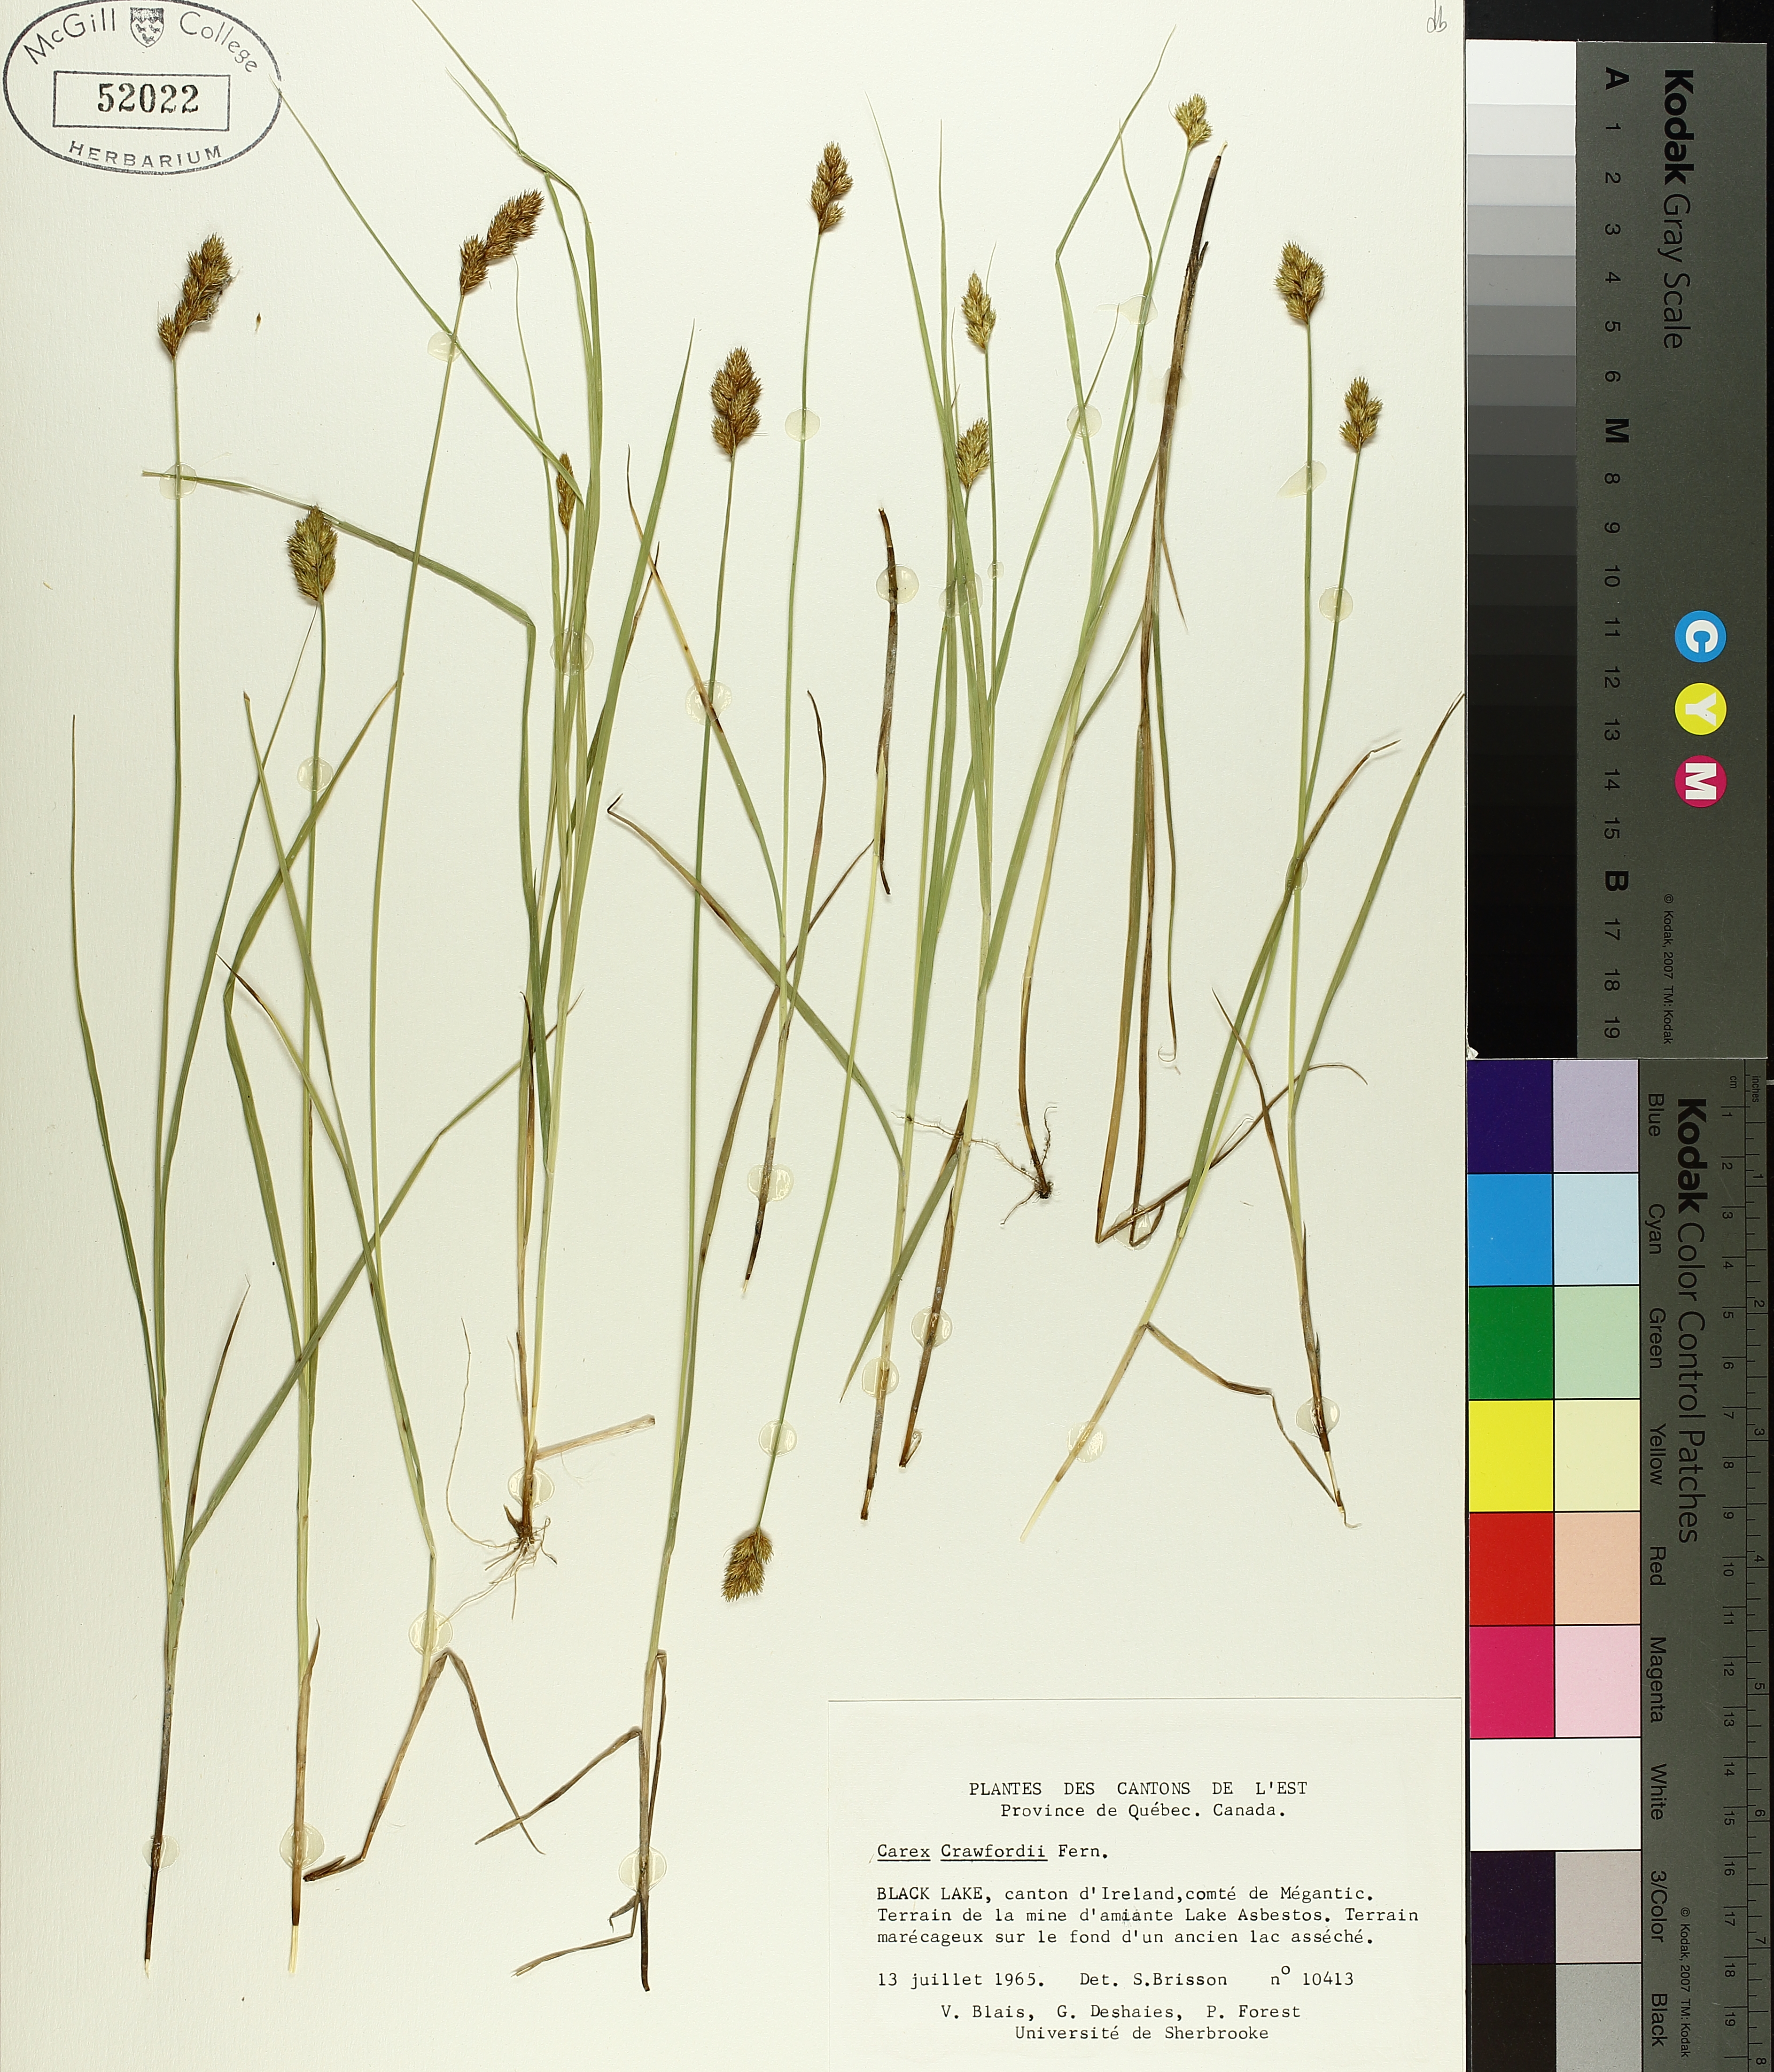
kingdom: Plantae
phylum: Tracheophyta
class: Liliopsida
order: Poales
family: Cyperaceae
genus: Carex
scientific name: Carex crawfordii
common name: Crawford's sedge
